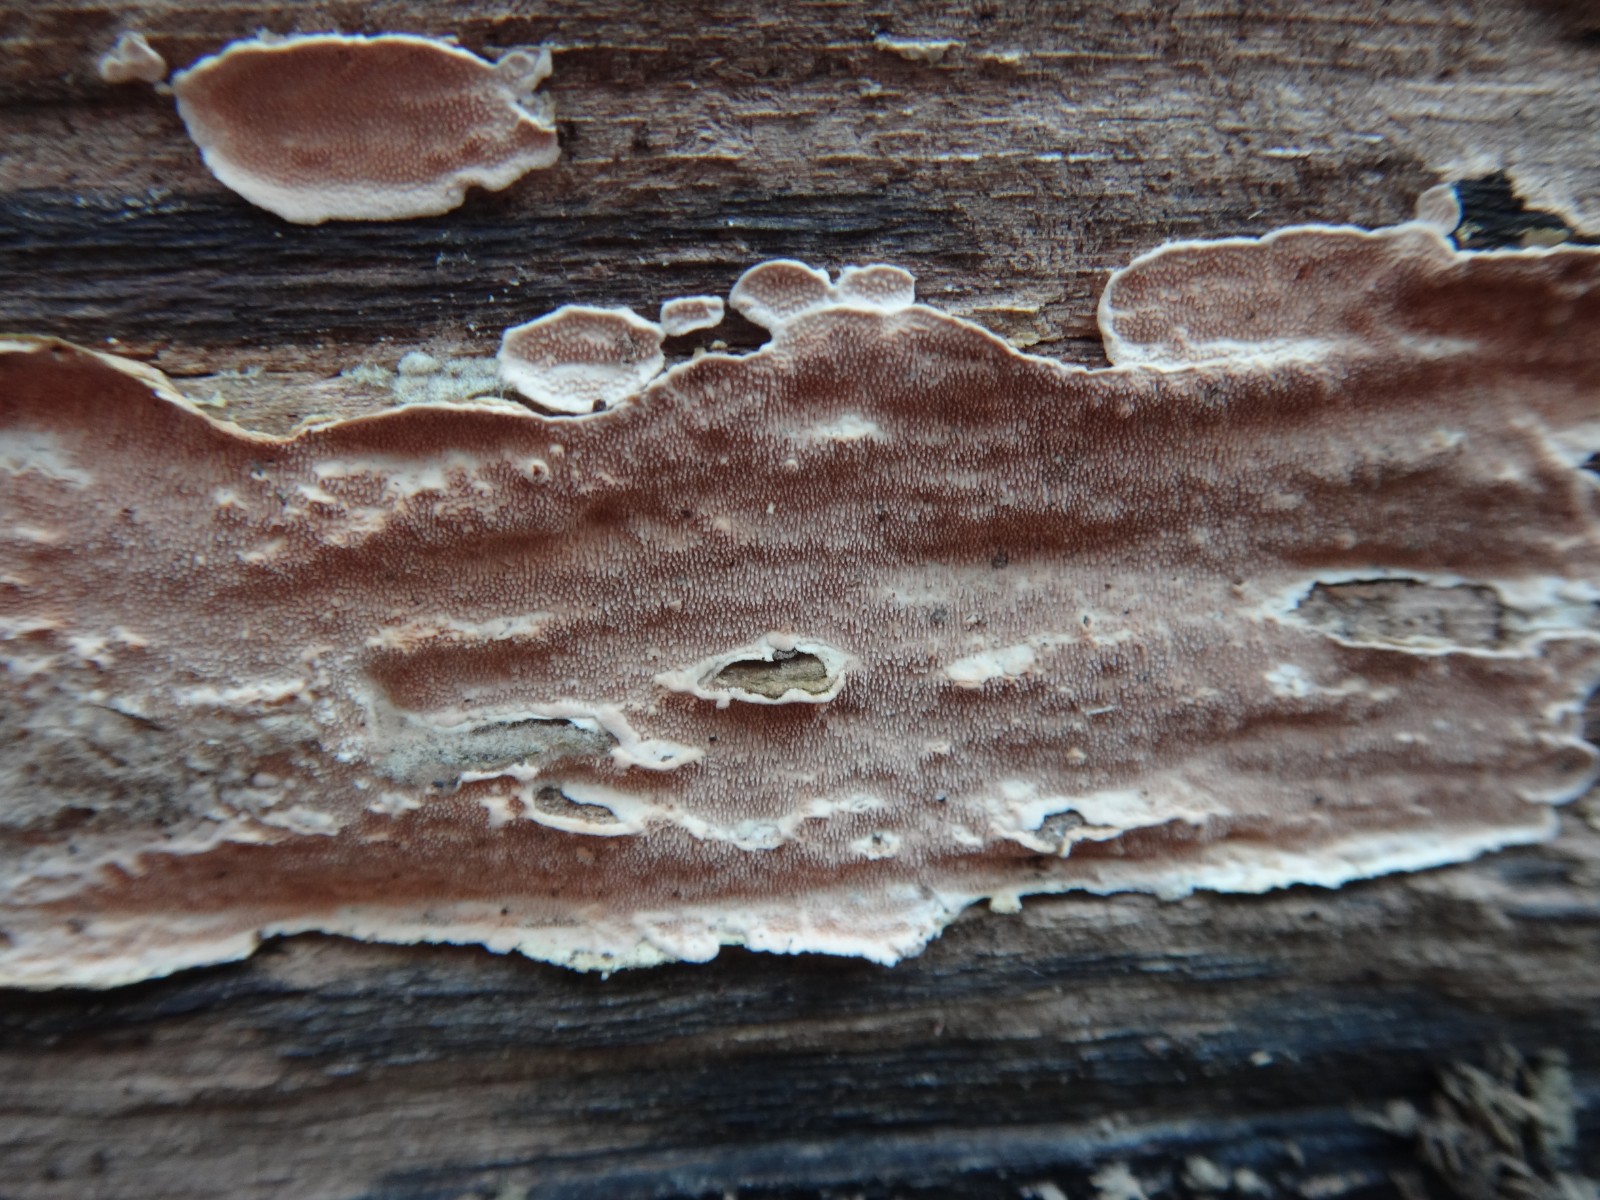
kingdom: Fungi
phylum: Basidiomycota
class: Agaricomycetes
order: Polyporales
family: Steccherinaceae
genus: Steccherinum
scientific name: Steccherinum ochraceum
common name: almindelig skønpig
